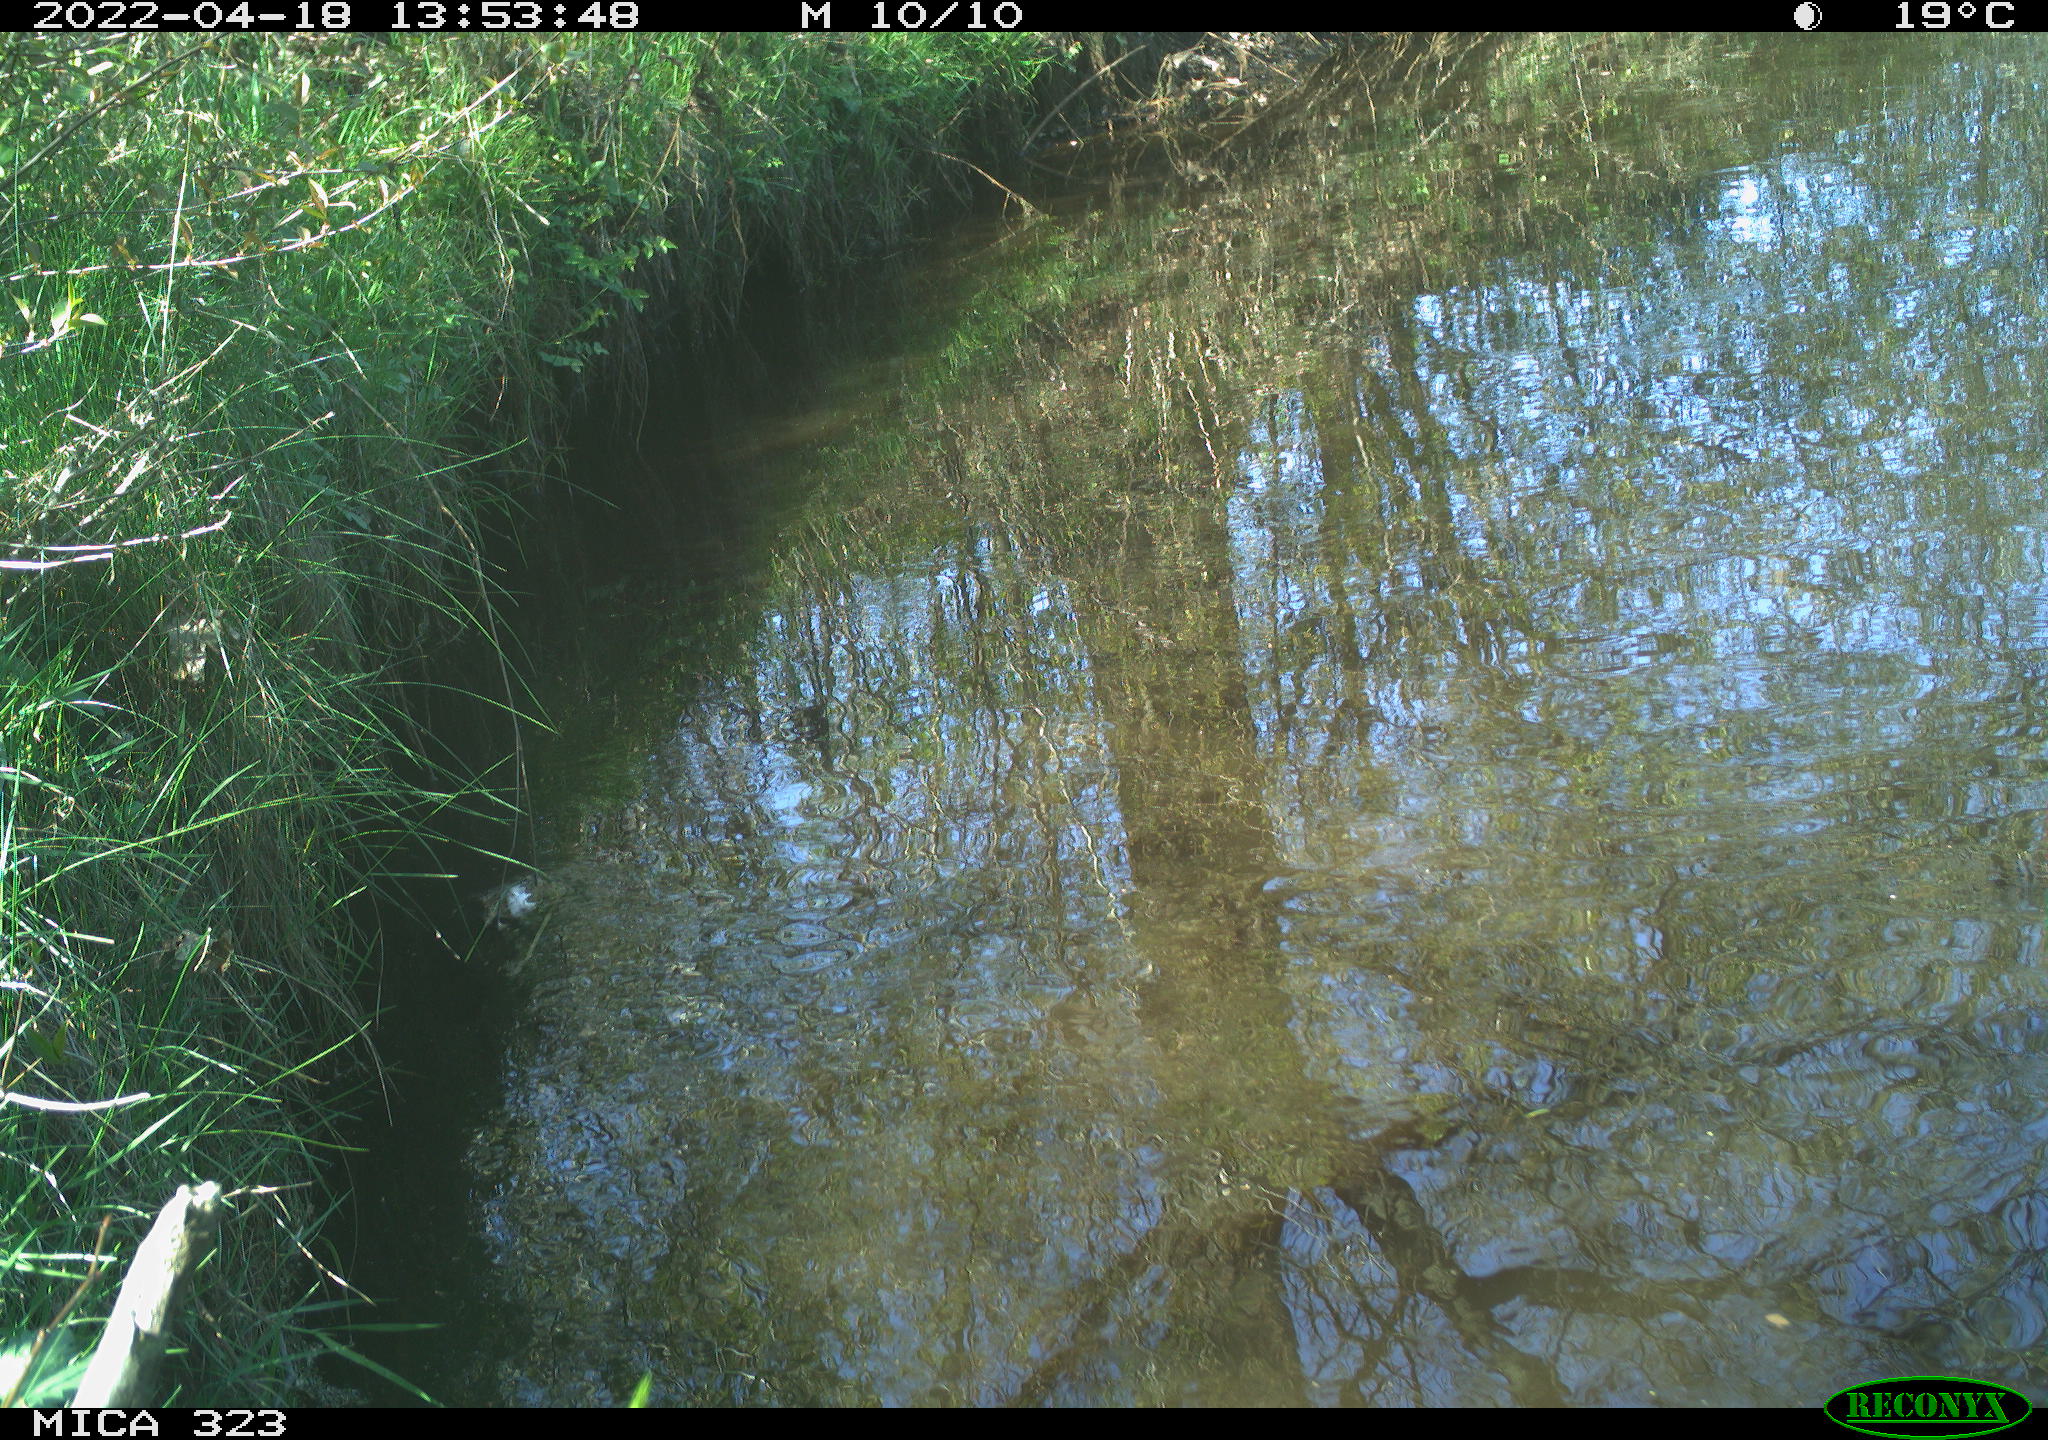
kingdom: Animalia
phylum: Chordata
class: Aves
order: Gruiformes
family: Rallidae
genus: Gallinula
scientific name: Gallinula chloropus
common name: Common moorhen
